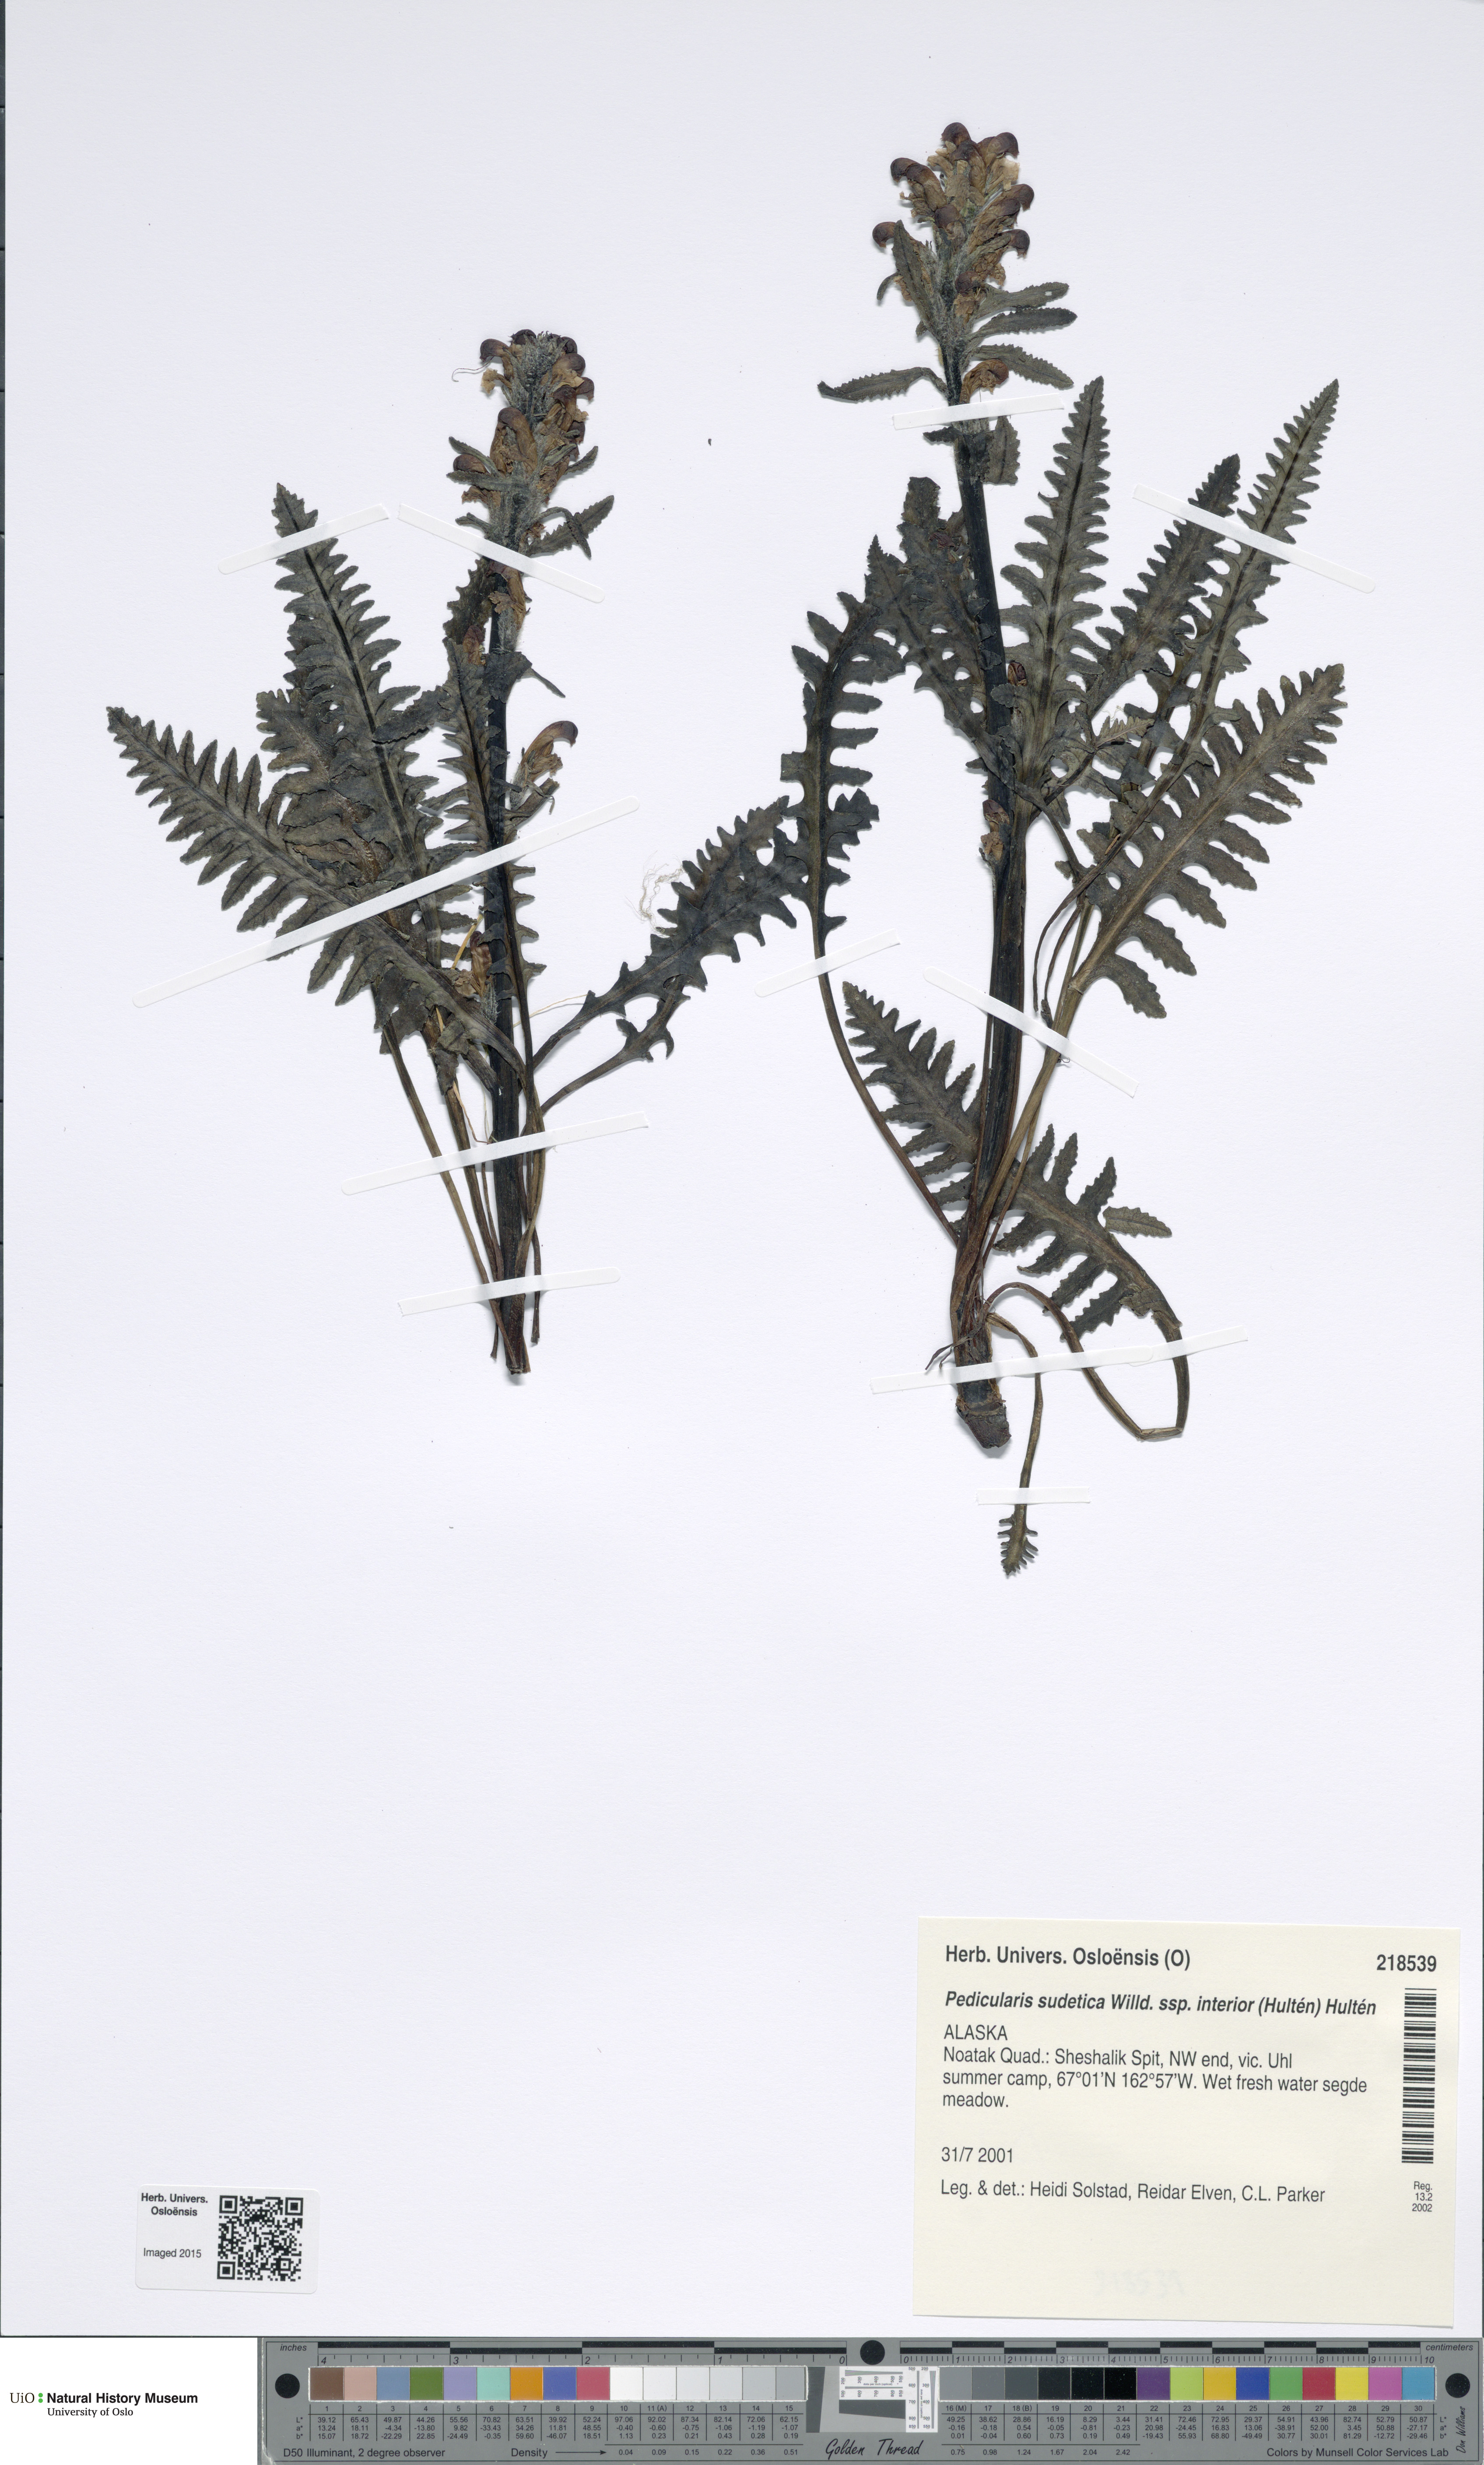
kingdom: Plantae
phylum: Tracheophyta
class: Magnoliopsida
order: Lamiales
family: Orobanchaceae
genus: Pedicularis
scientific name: Pedicularis interior
